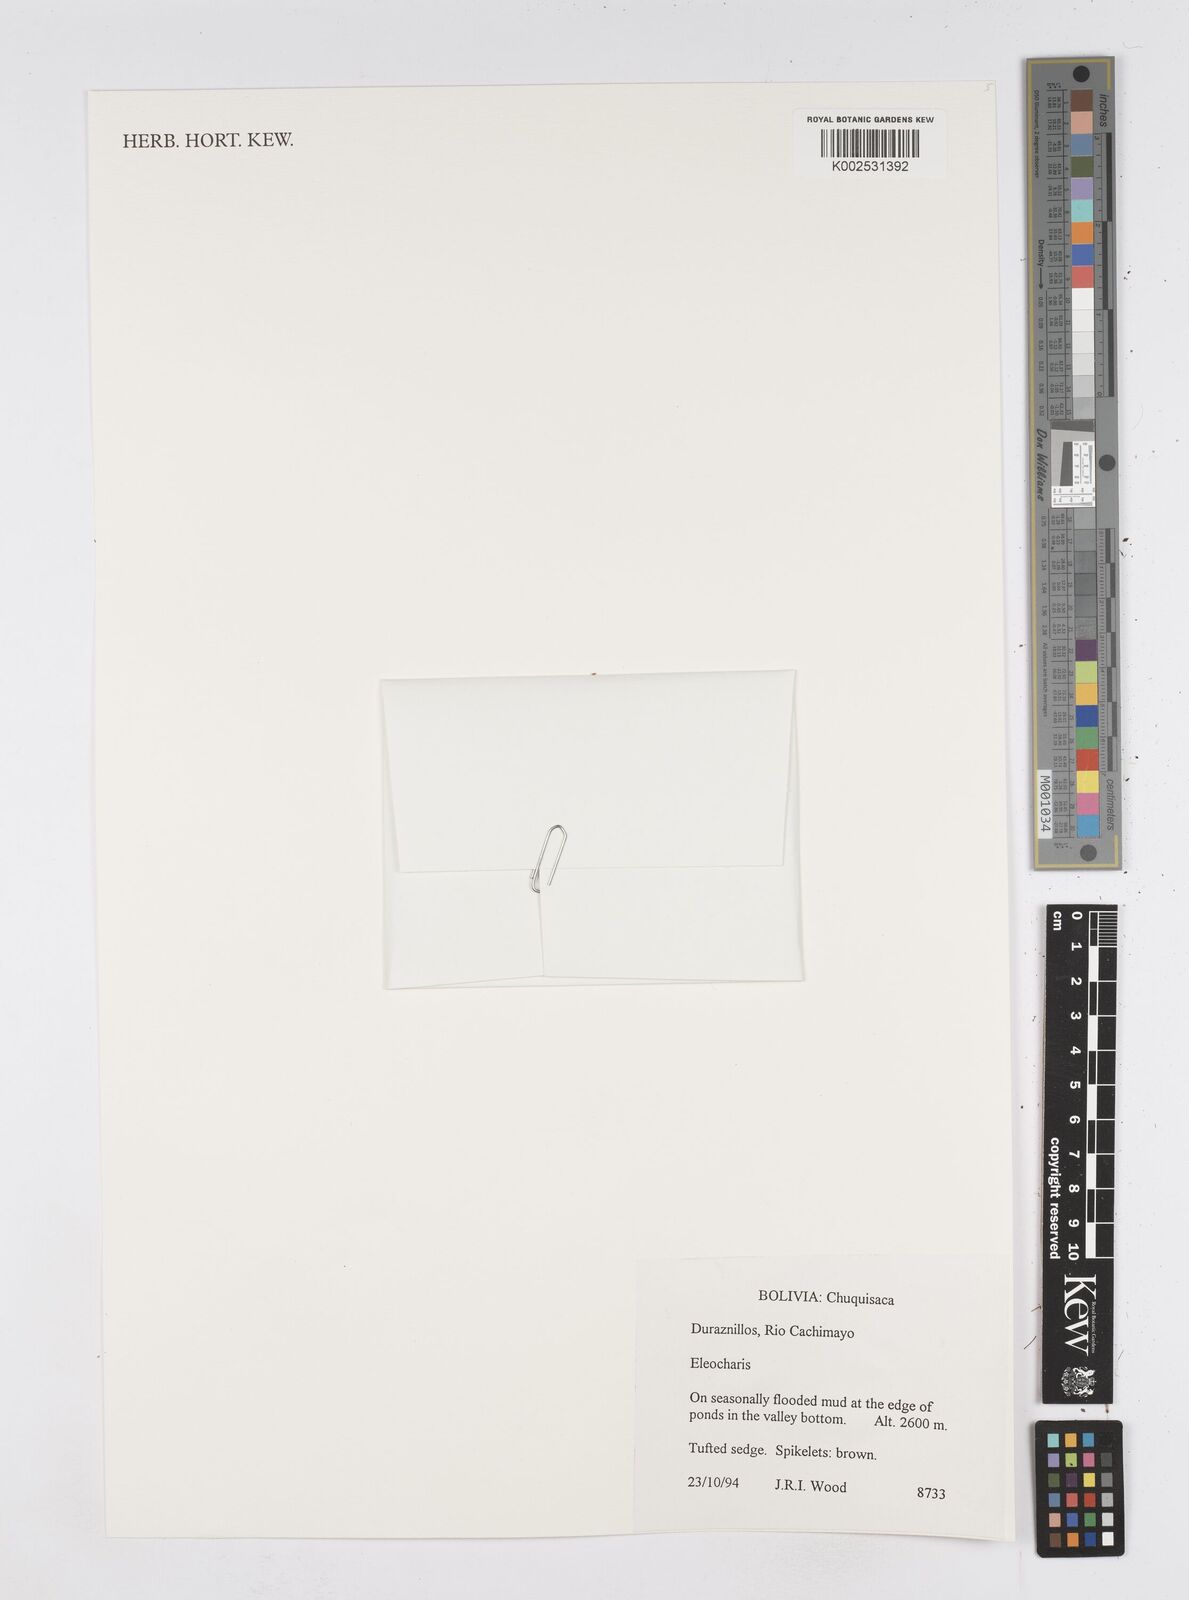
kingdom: Plantae
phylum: Tracheophyta
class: Liliopsida
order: Poales
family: Cyperaceae
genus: Eleocharis
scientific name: Eleocharis
